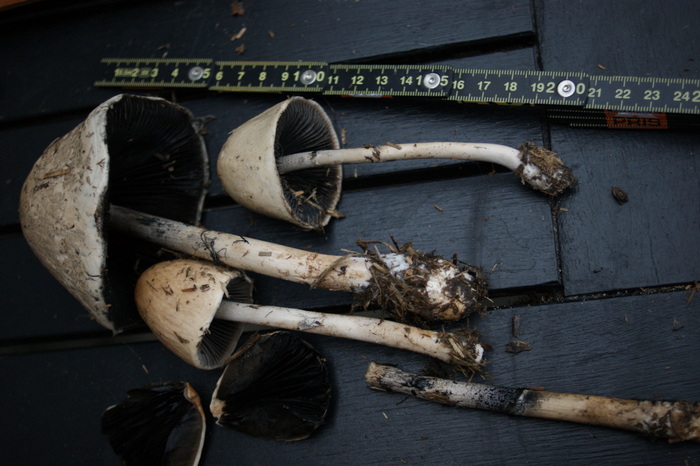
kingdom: Fungi
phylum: Basidiomycota
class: Agaricomycetes
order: Agaricales
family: Bolbitiaceae
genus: Panaeolus
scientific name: Panaeolus semiovatus
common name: ring-glanshat
